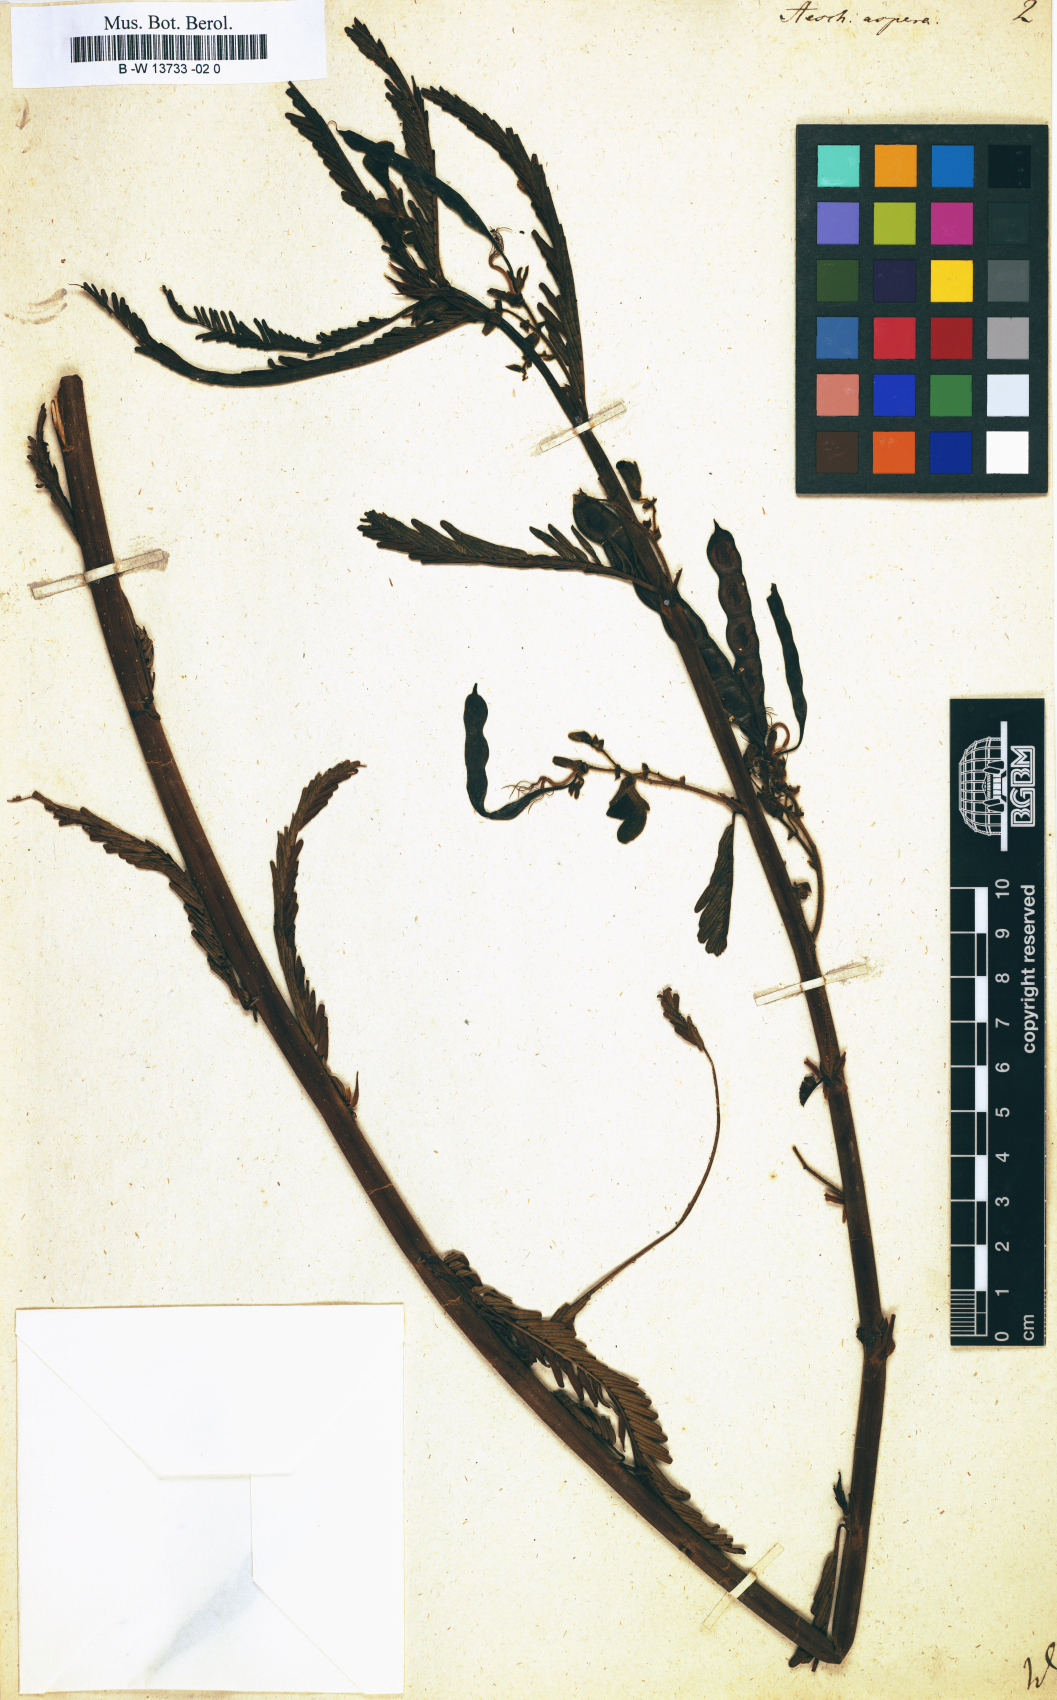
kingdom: Plantae
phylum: Tracheophyta
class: Magnoliopsida
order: Fabales
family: Fabaceae
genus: Aeschynomene
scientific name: Aeschynomene aspera
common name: Pith plant
